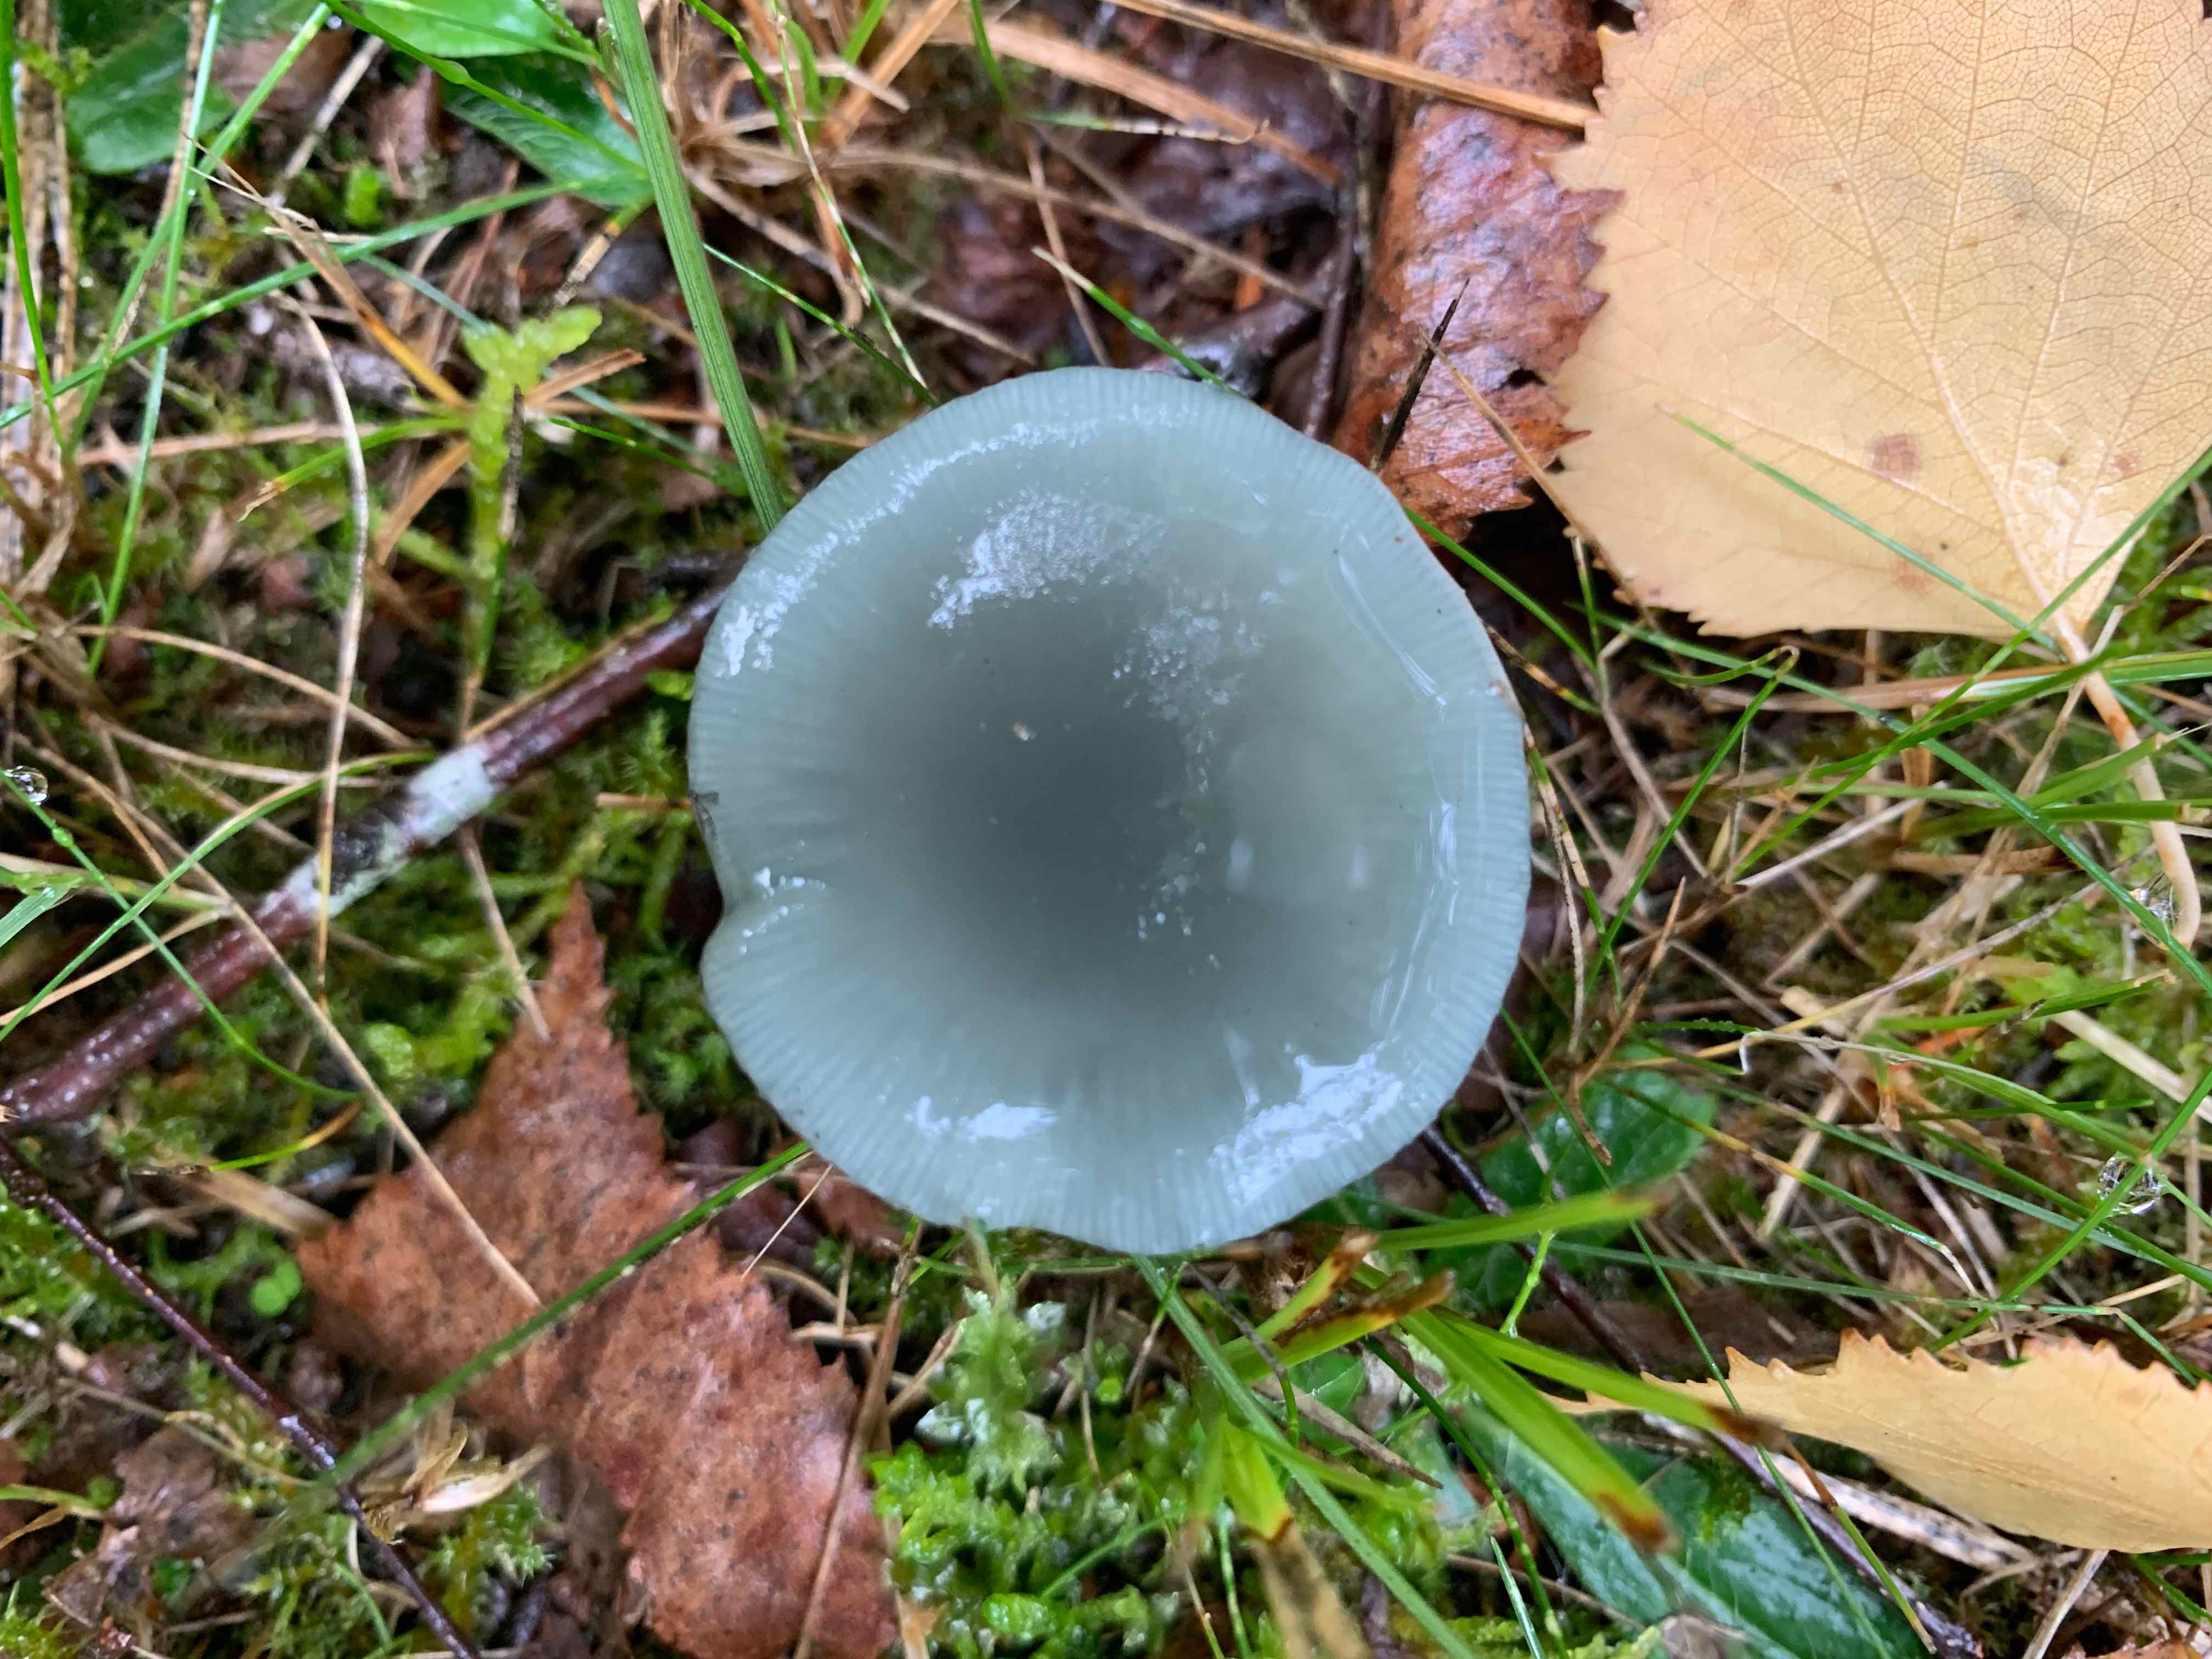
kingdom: Fungi
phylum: Basidiomycota
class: Agaricomycetes
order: Agaricales
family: Strophariaceae
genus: Stropharia
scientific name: Stropharia cyanea
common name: blågrøn bredblad
